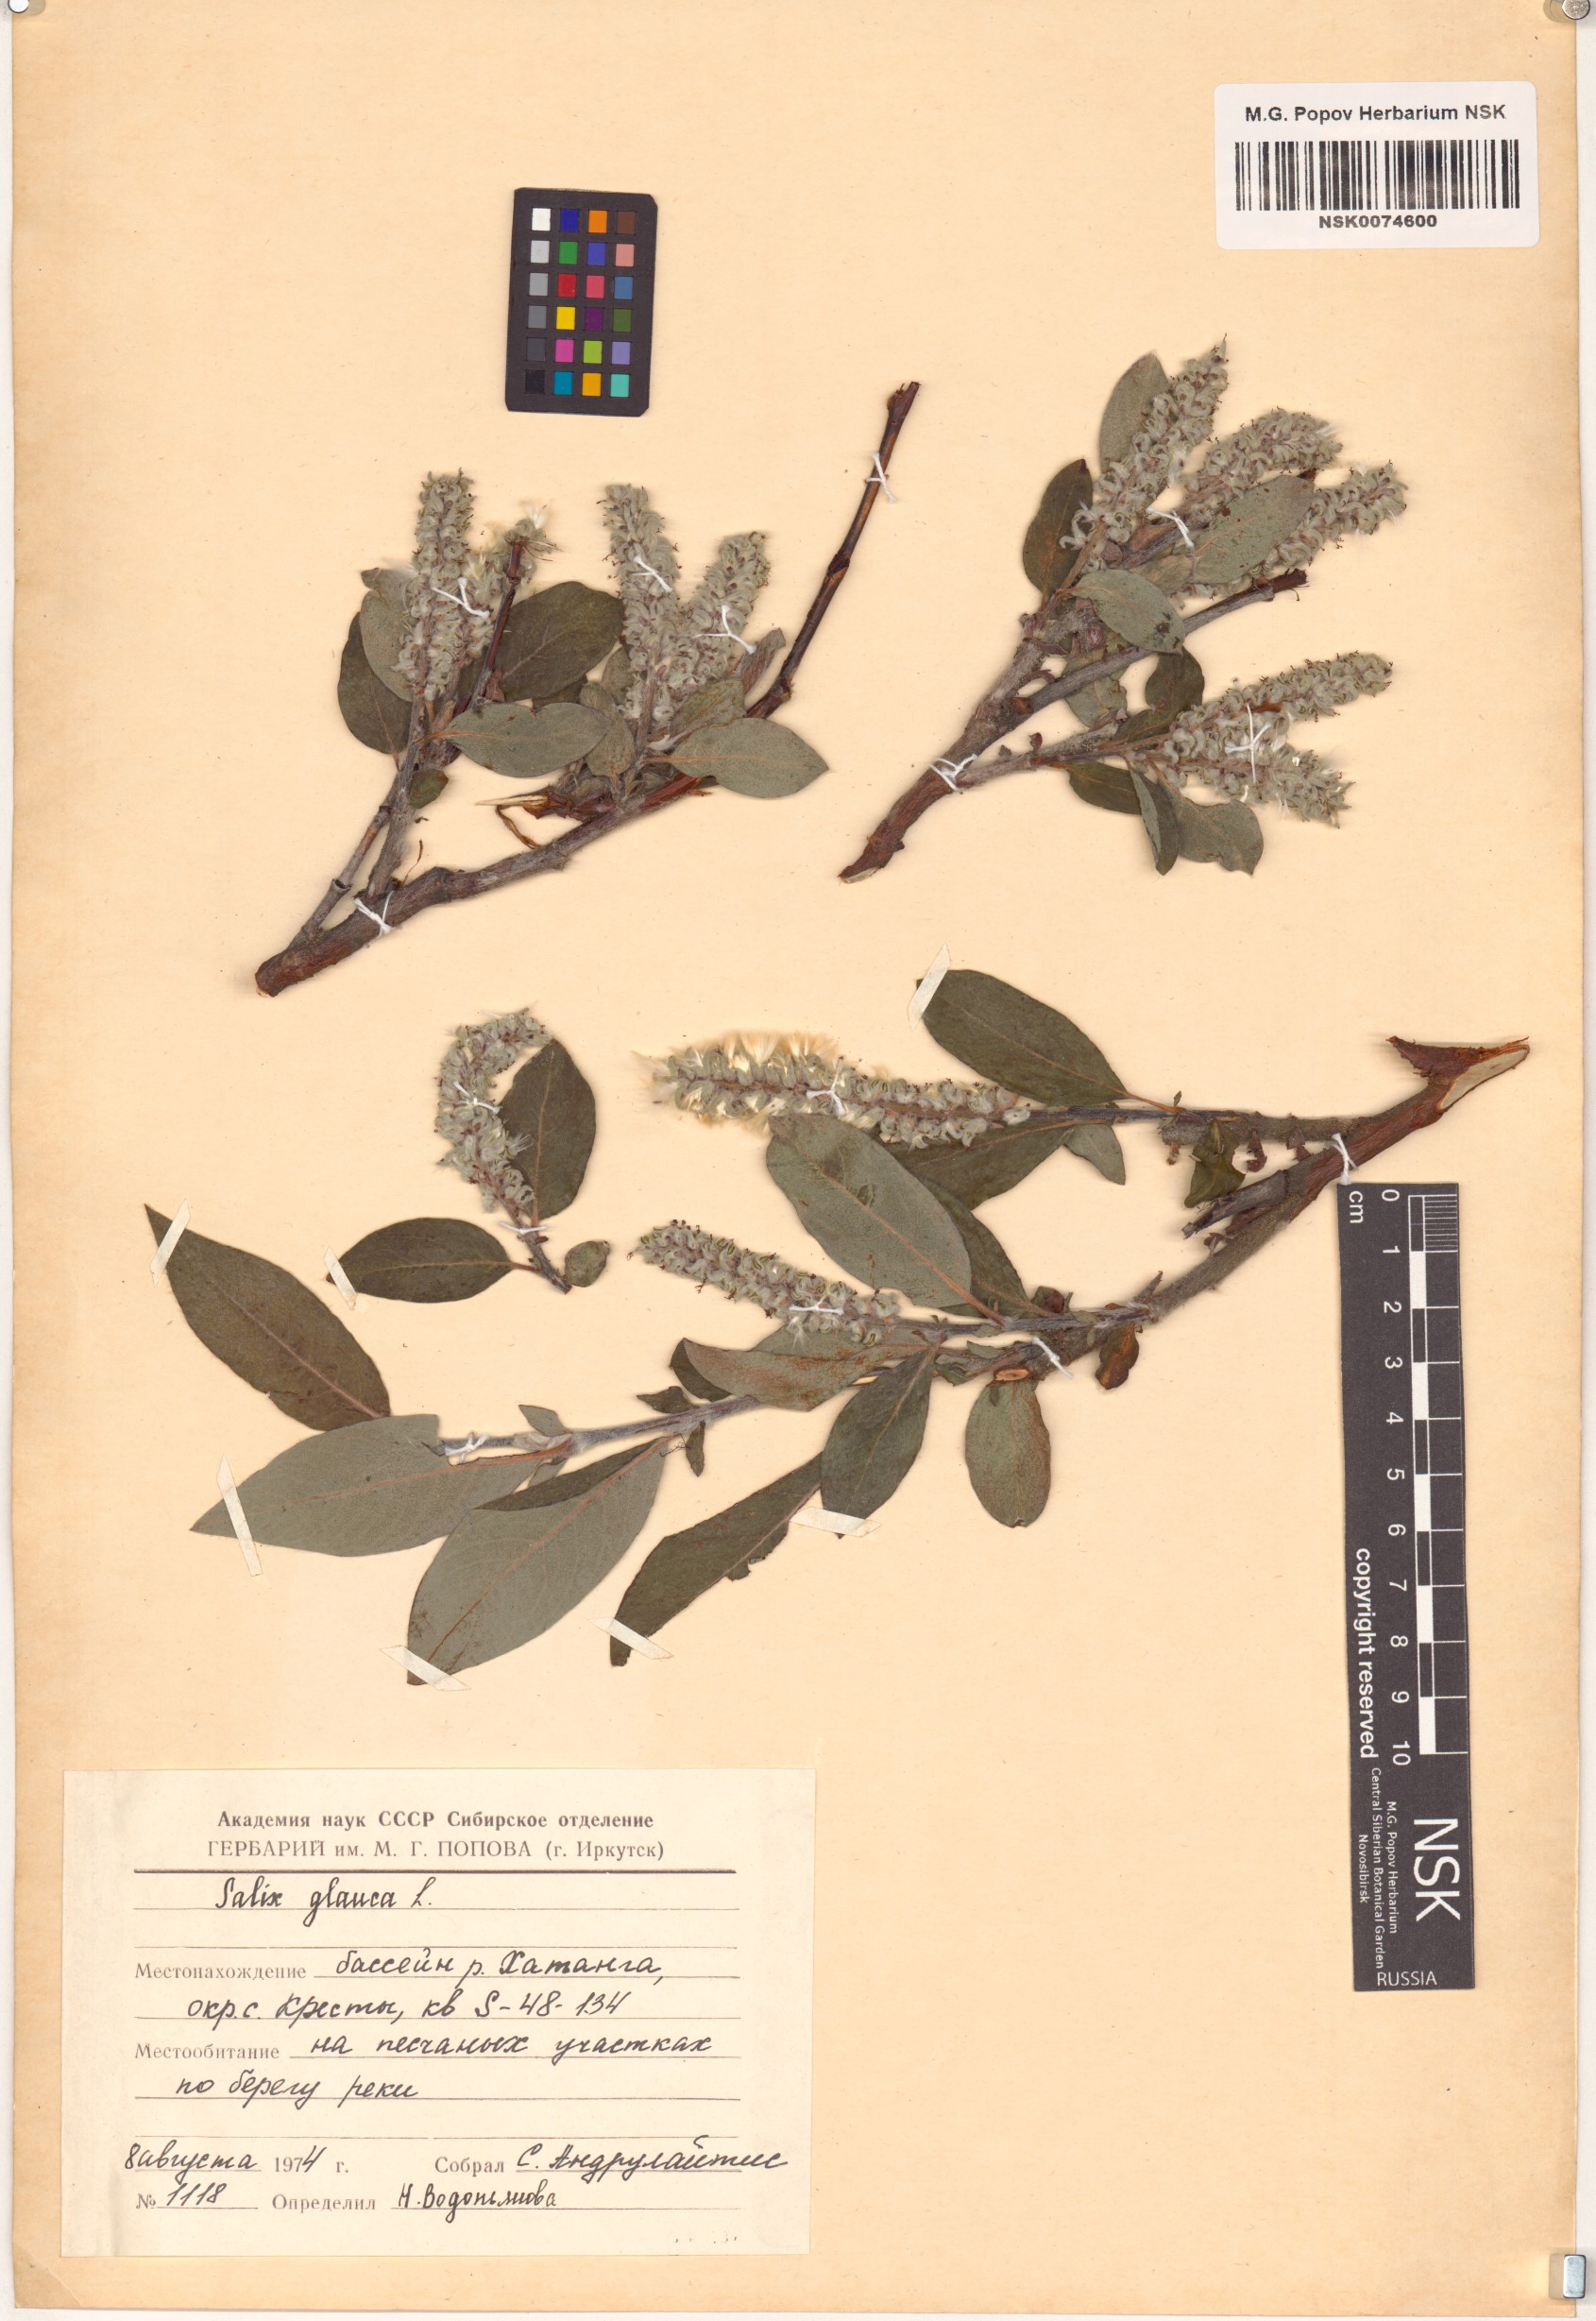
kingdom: Plantae
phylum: Tracheophyta
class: Magnoliopsida
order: Malpighiales
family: Salicaceae
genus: Salix
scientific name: Salix glauca
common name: Glaucous willow
